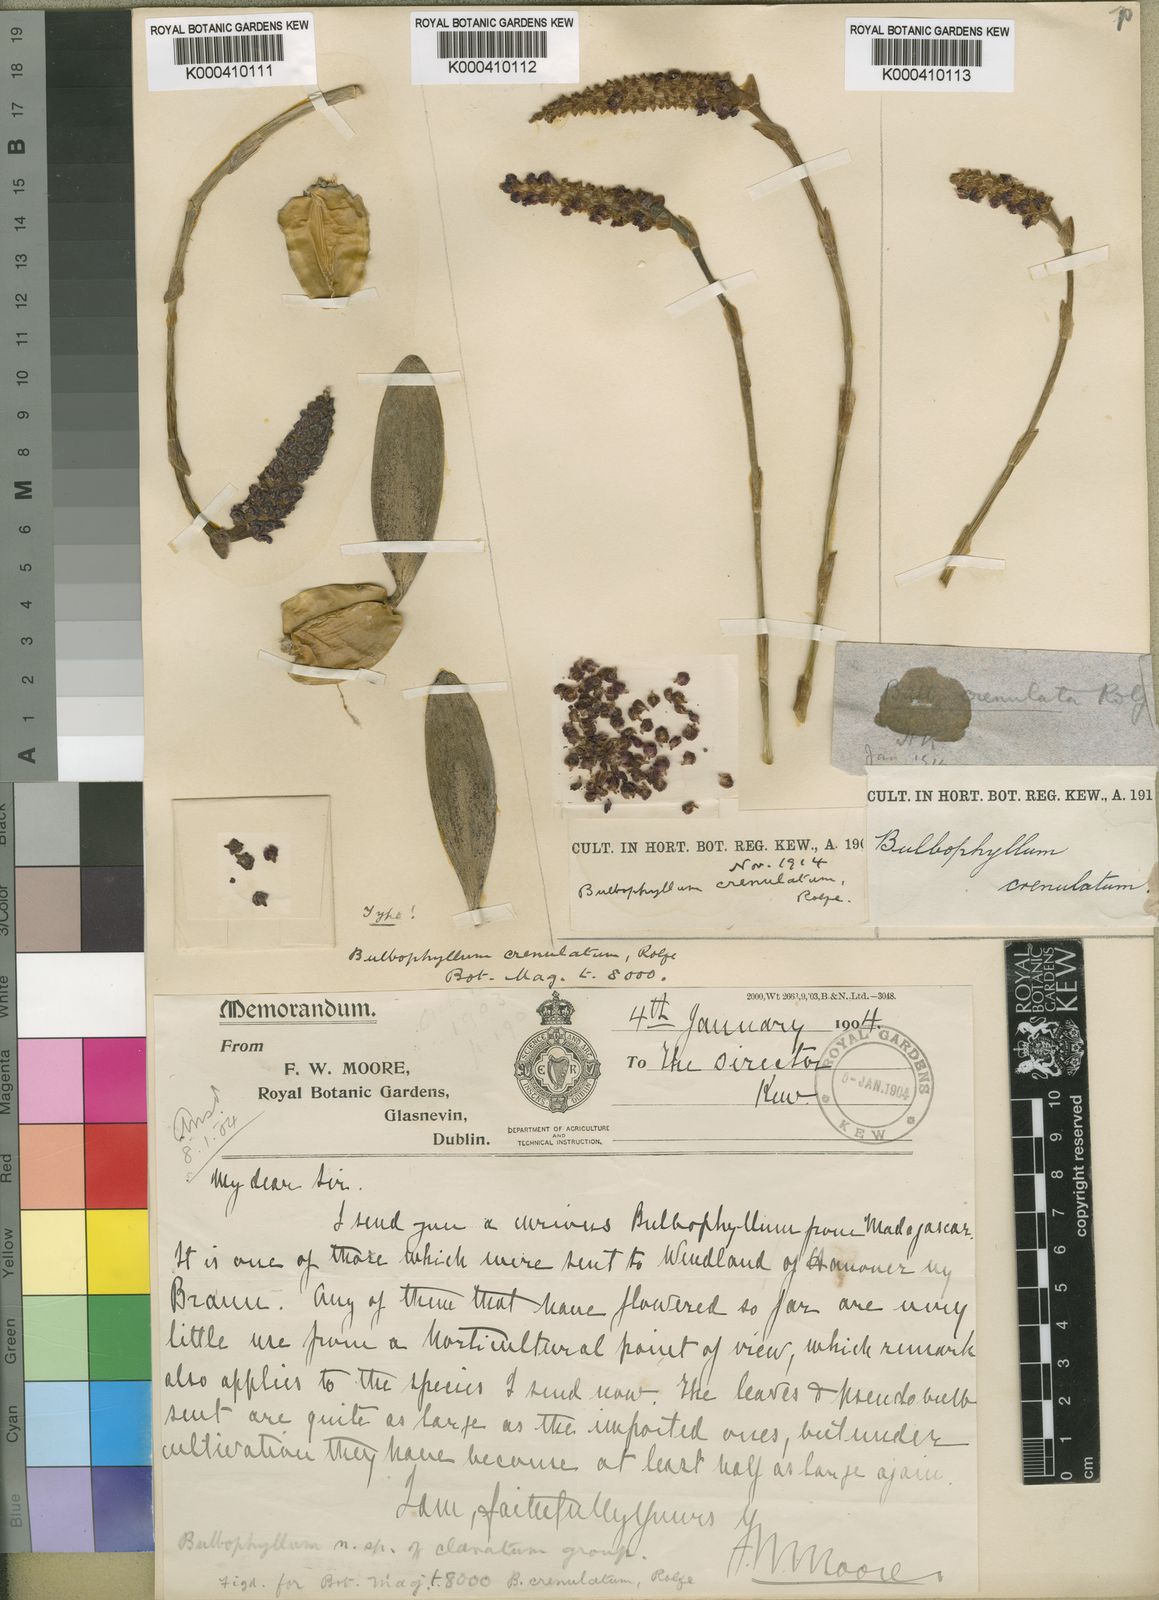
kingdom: Plantae
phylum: Tracheophyta
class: Liliopsida
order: Asparagales
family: Orchidaceae
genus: Bulbophyllum
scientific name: Bulbophyllum coriophorum
